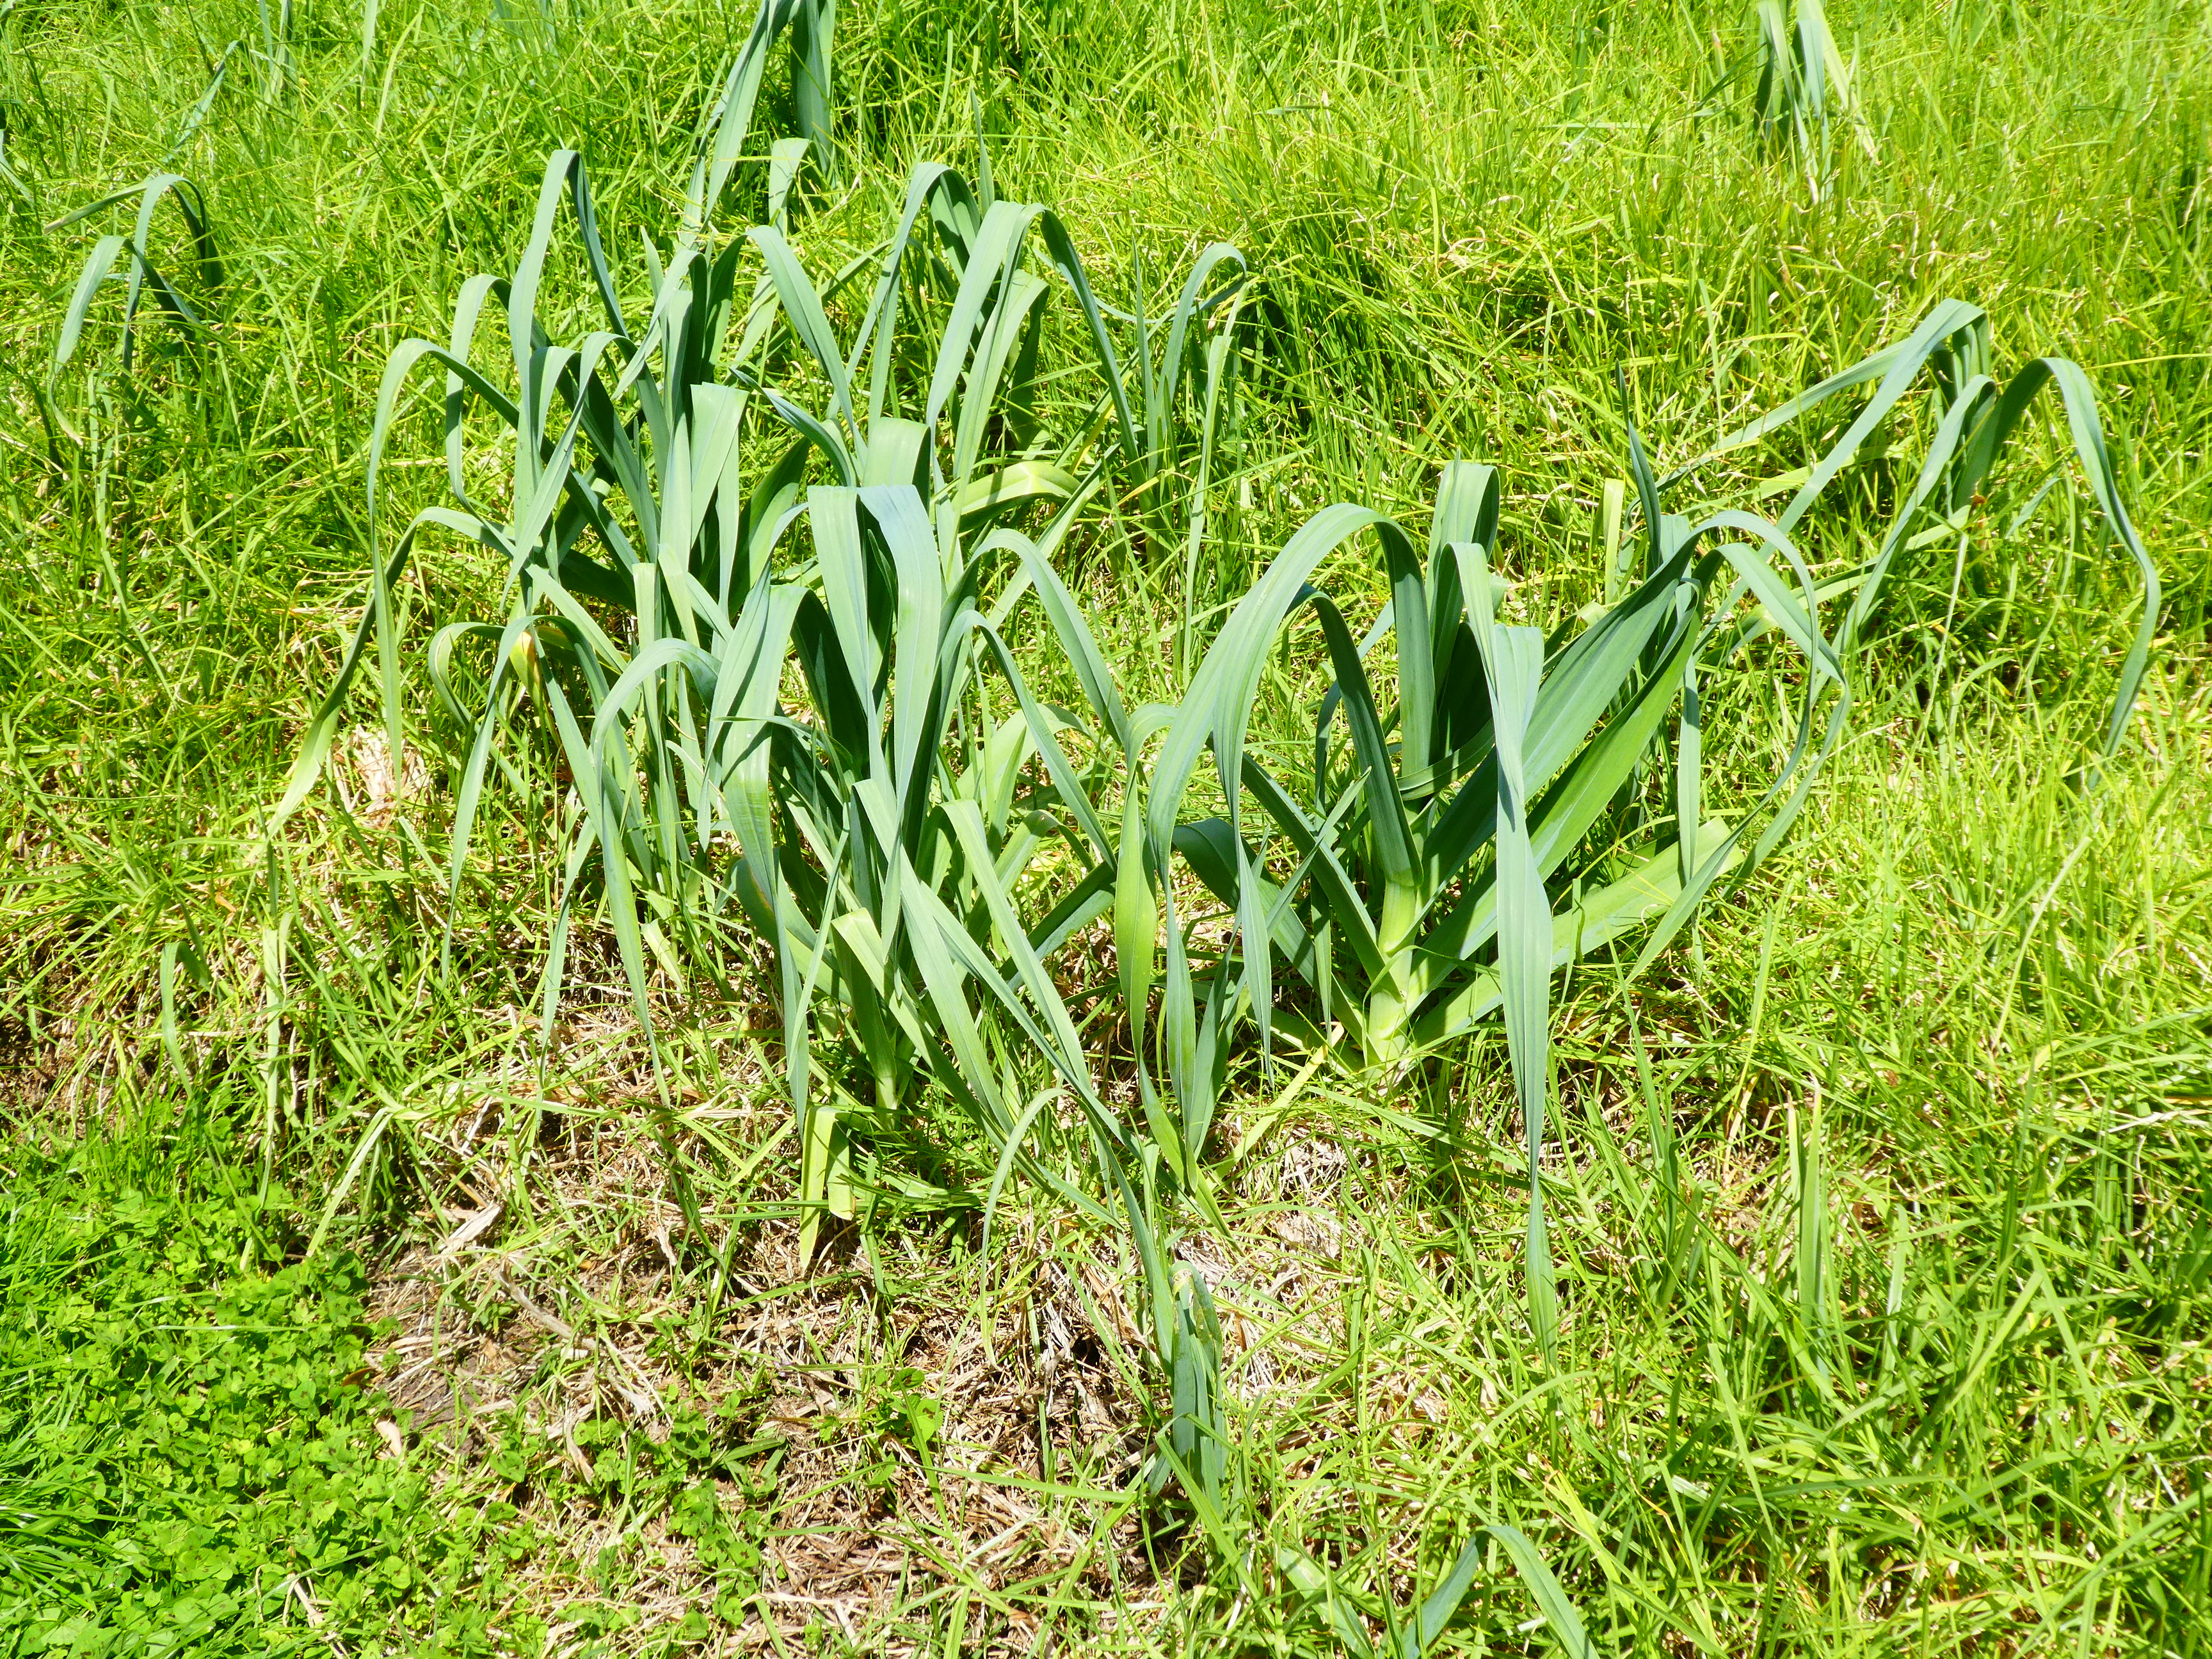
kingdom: Plantae
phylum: Tracheophyta
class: Liliopsida
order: Asparagales
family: Amaryllidaceae
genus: Allium
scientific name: Allium sativum
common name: Garlic
